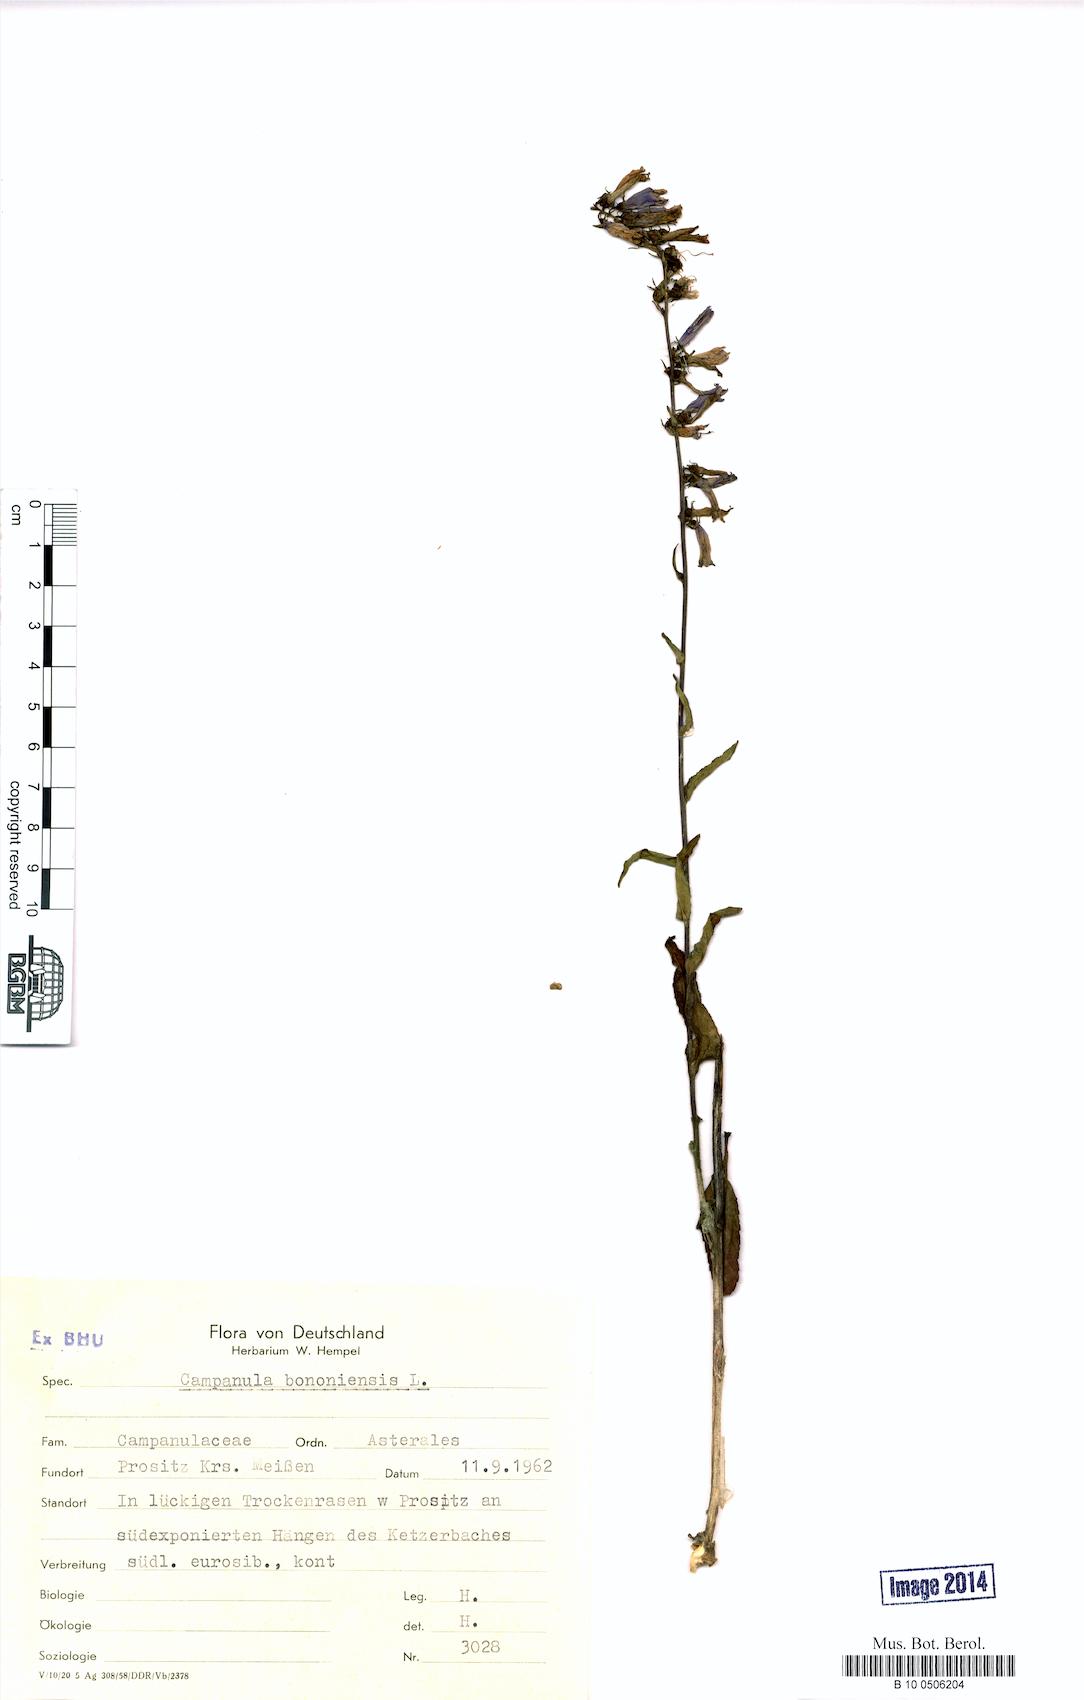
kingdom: Plantae
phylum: Tracheophyta
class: Magnoliopsida
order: Asterales
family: Campanulaceae
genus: Campanula
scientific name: Campanula bononiensis
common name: Pale bellflower
